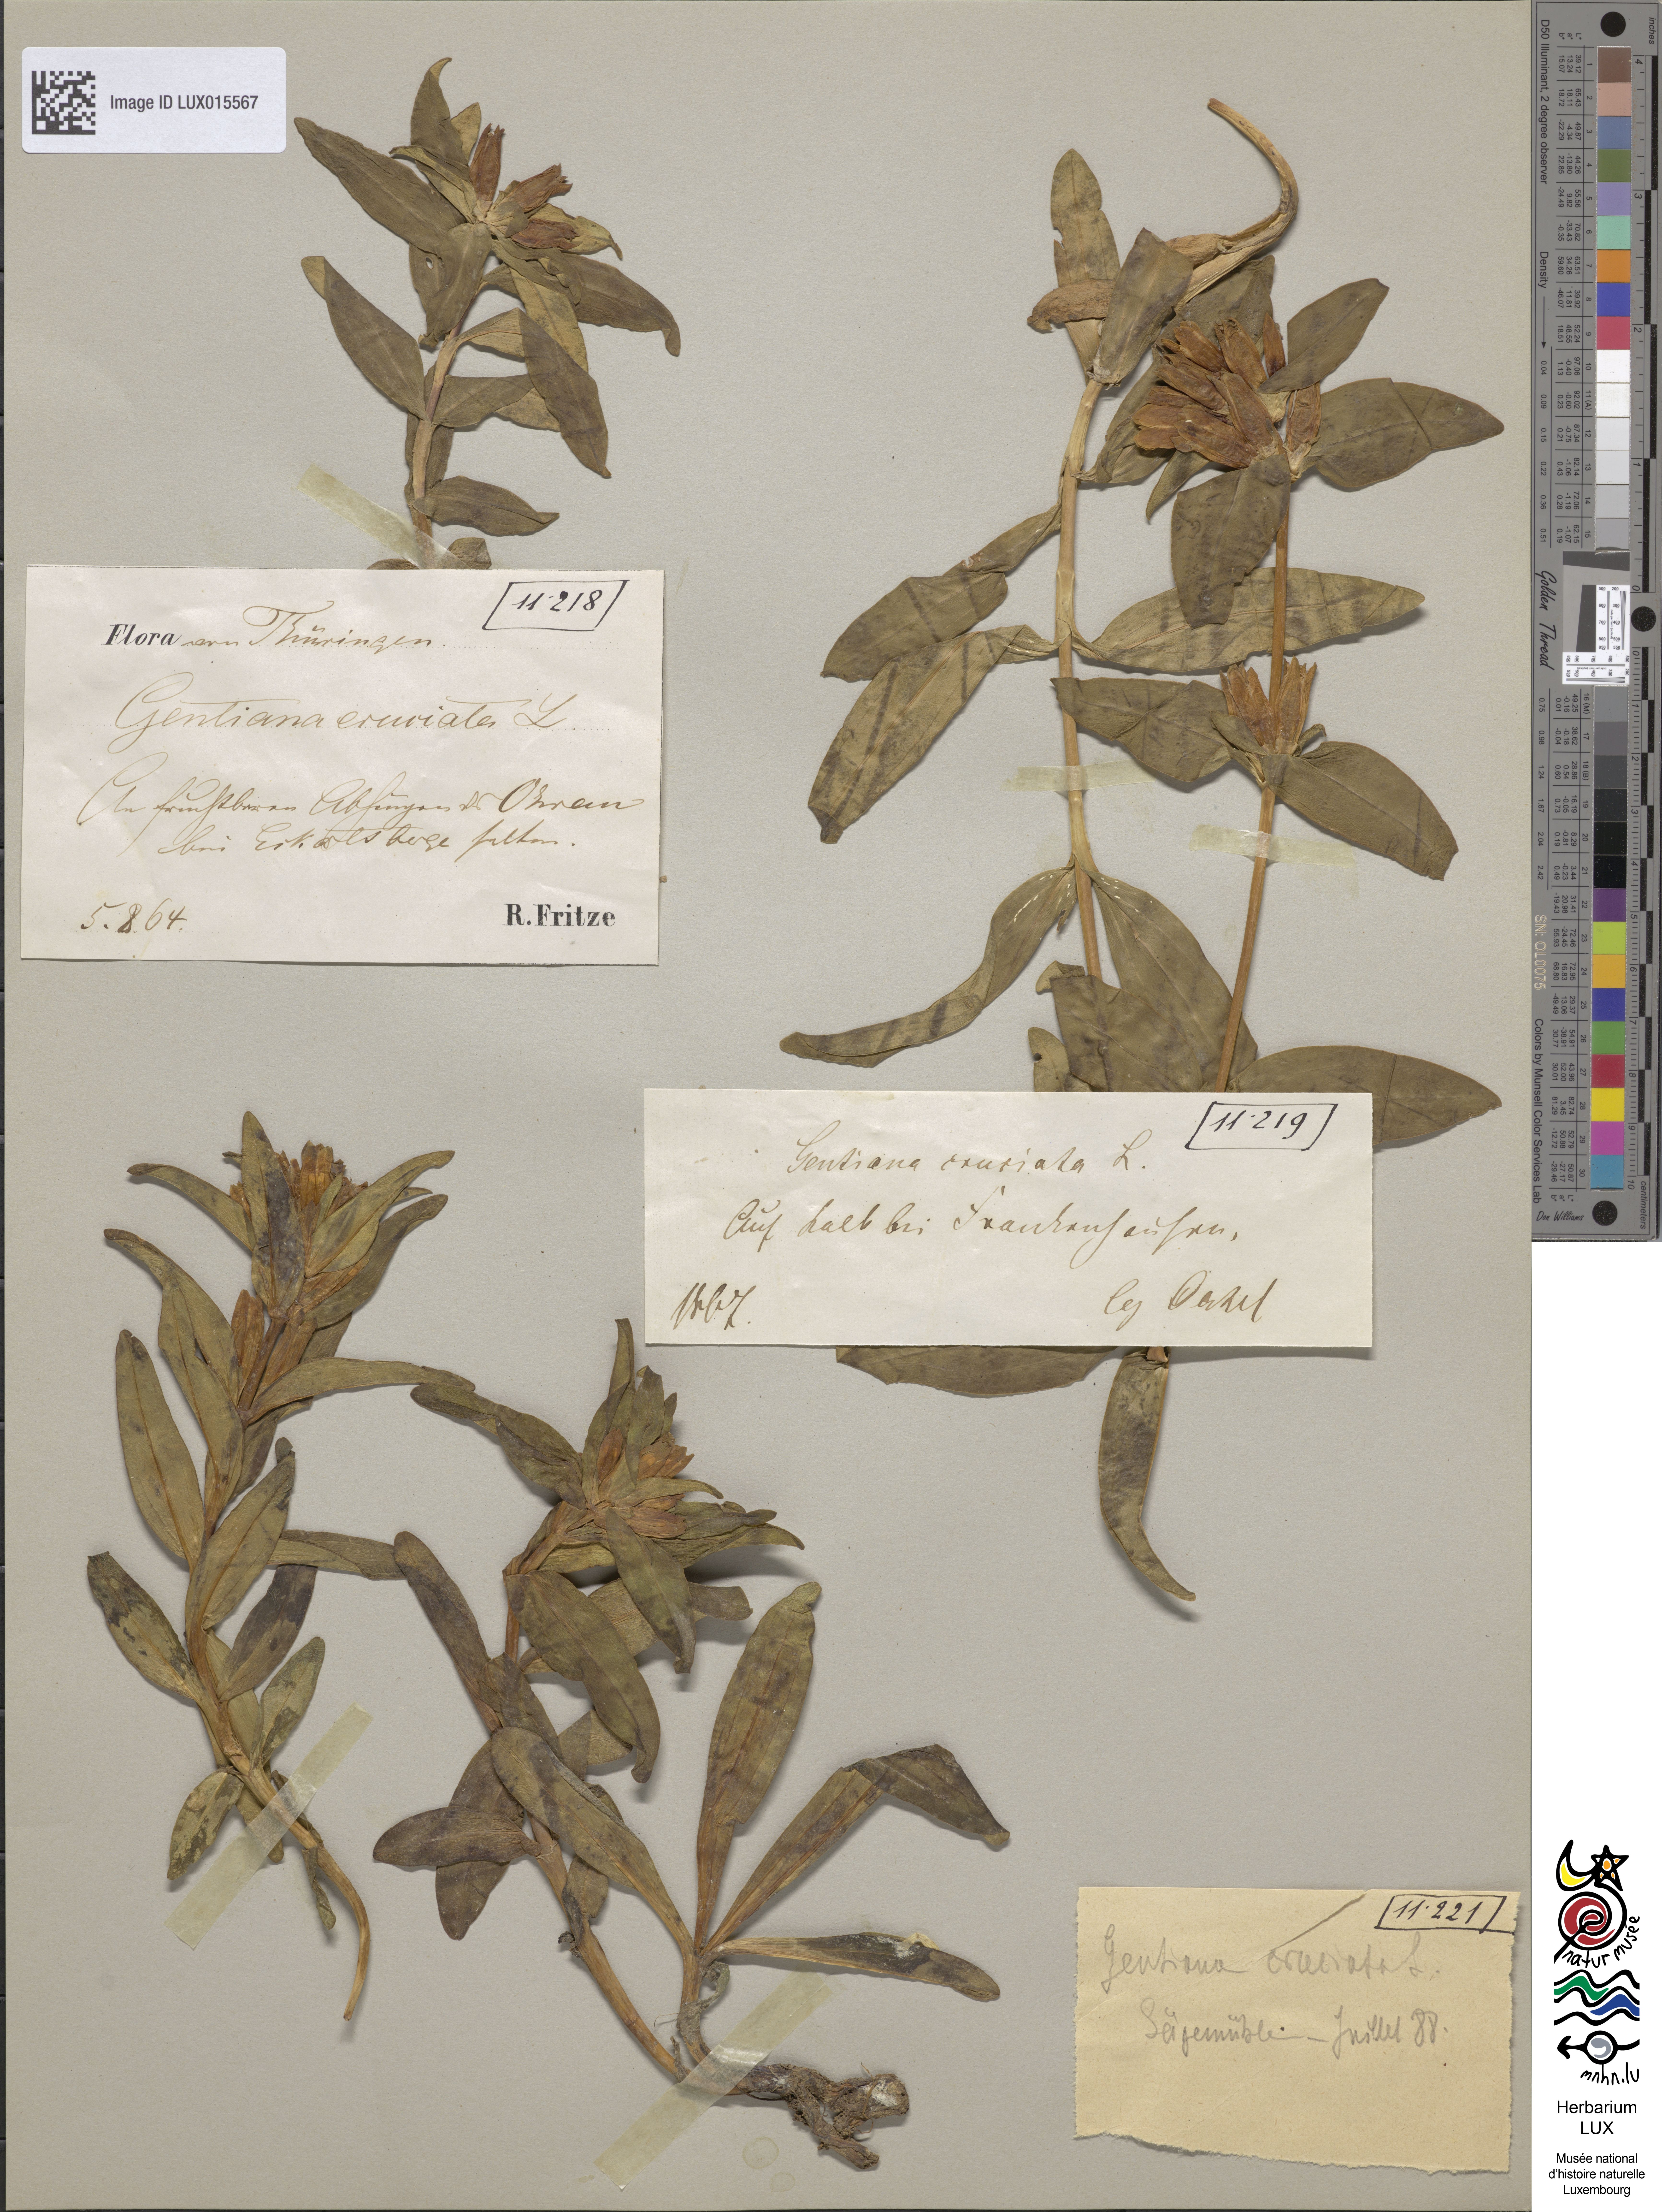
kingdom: Plantae
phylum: Tracheophyta
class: Magnoliopsida
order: Gentianales
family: Gentianaceae
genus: Gentiana
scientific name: Gentiana cruciata
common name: Cross gentian
